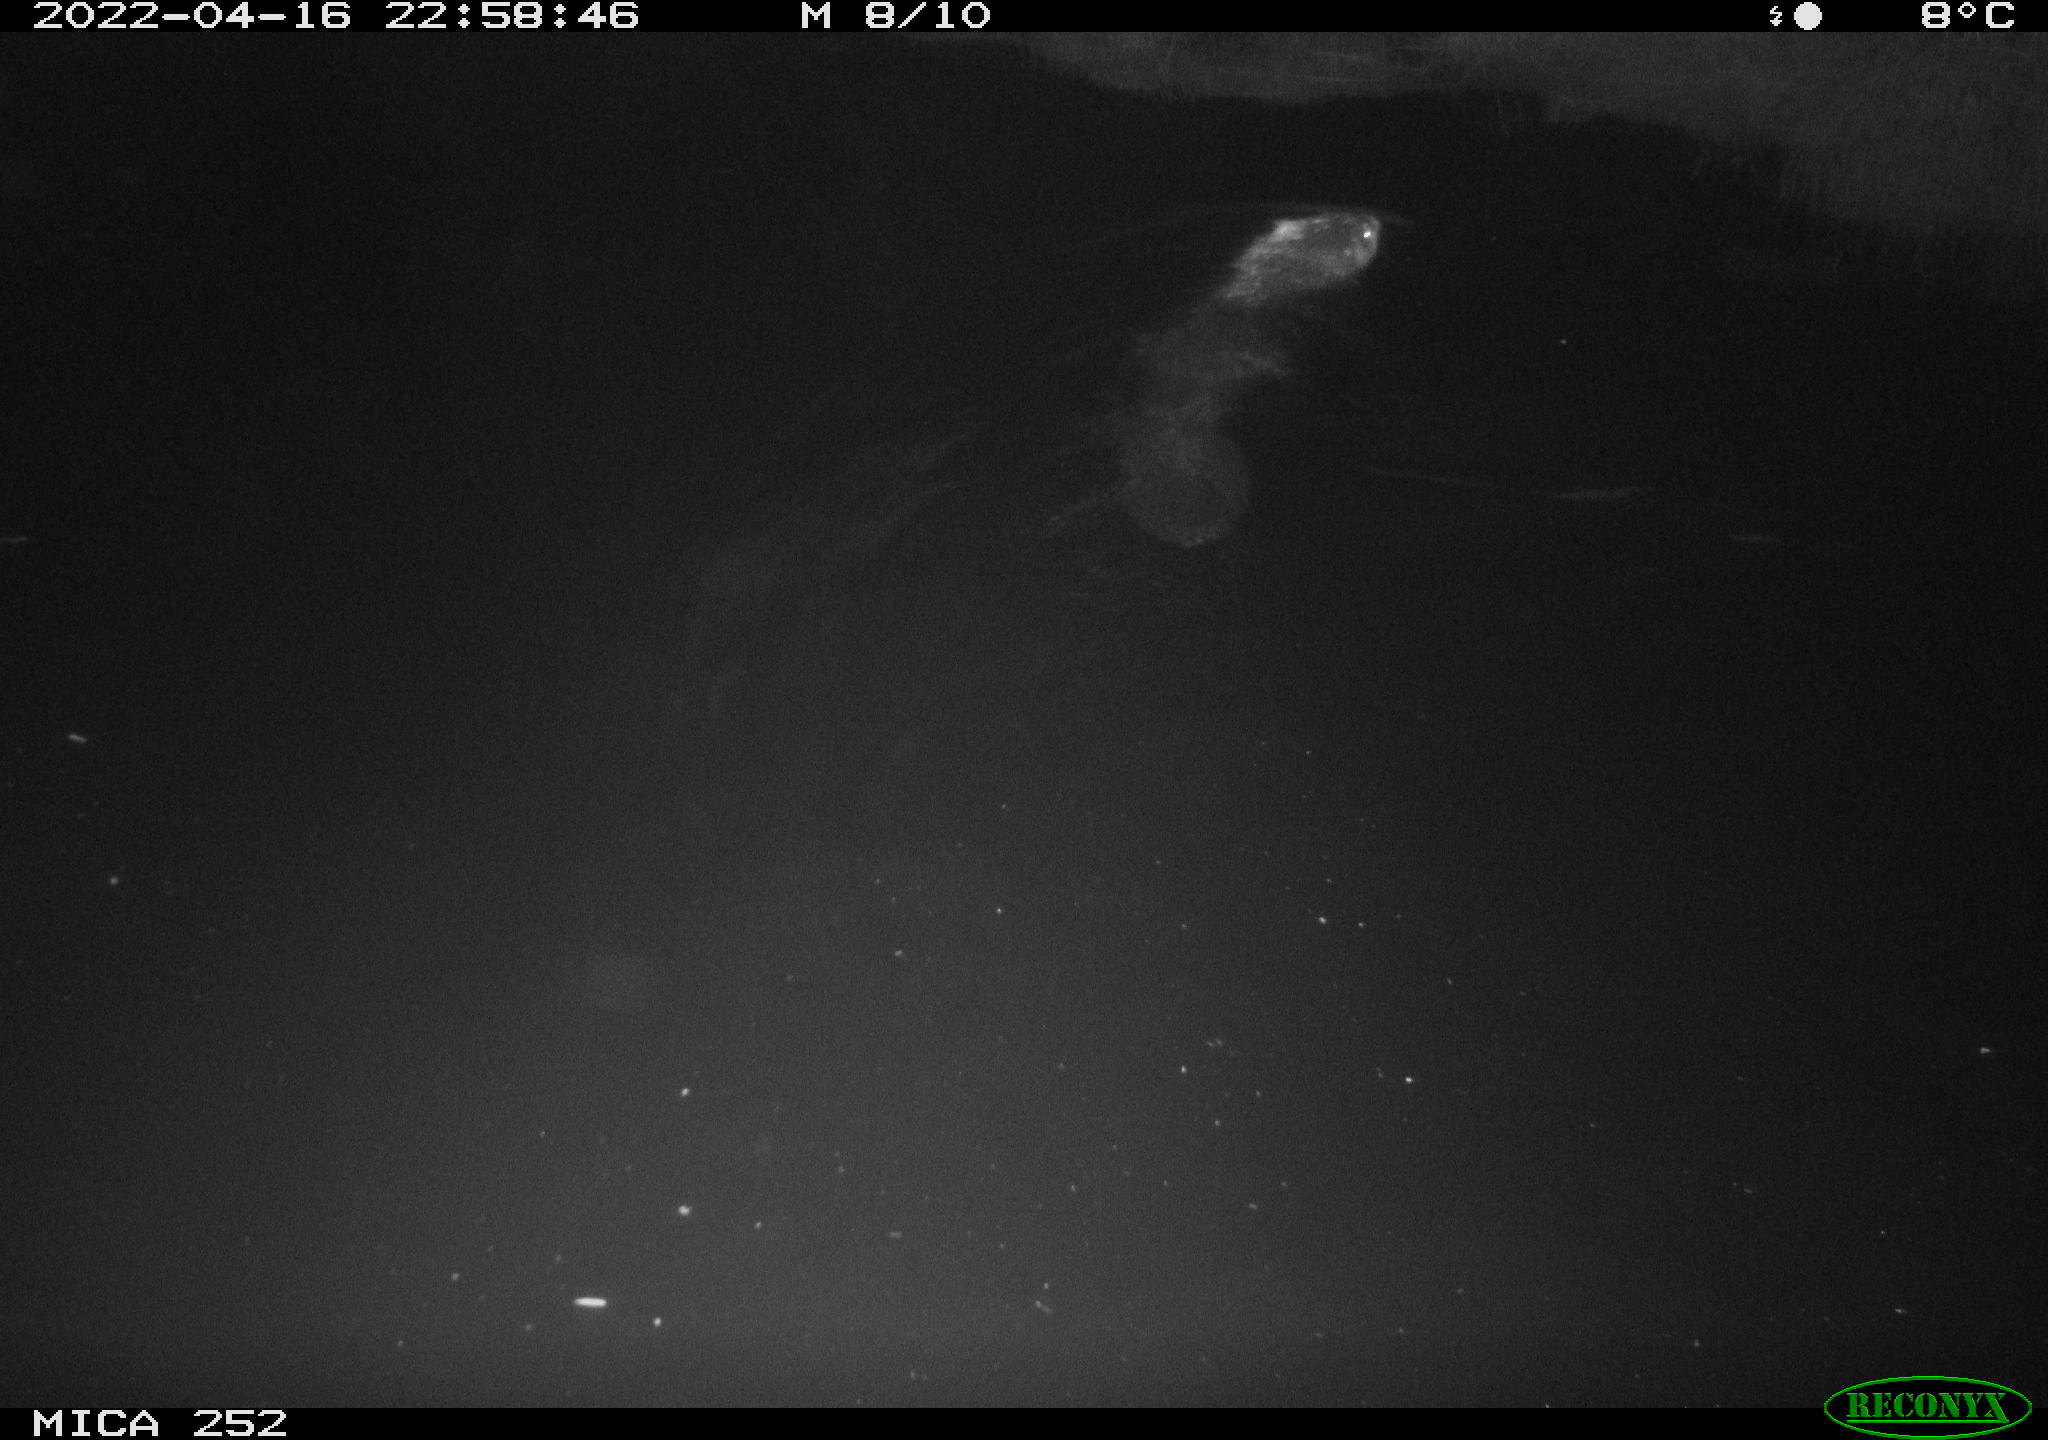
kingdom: Animalia
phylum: Chordata
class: Mammalia
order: Rodentia
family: Castoridae
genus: Castor
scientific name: Castor fiber
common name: Eurasian beaver
